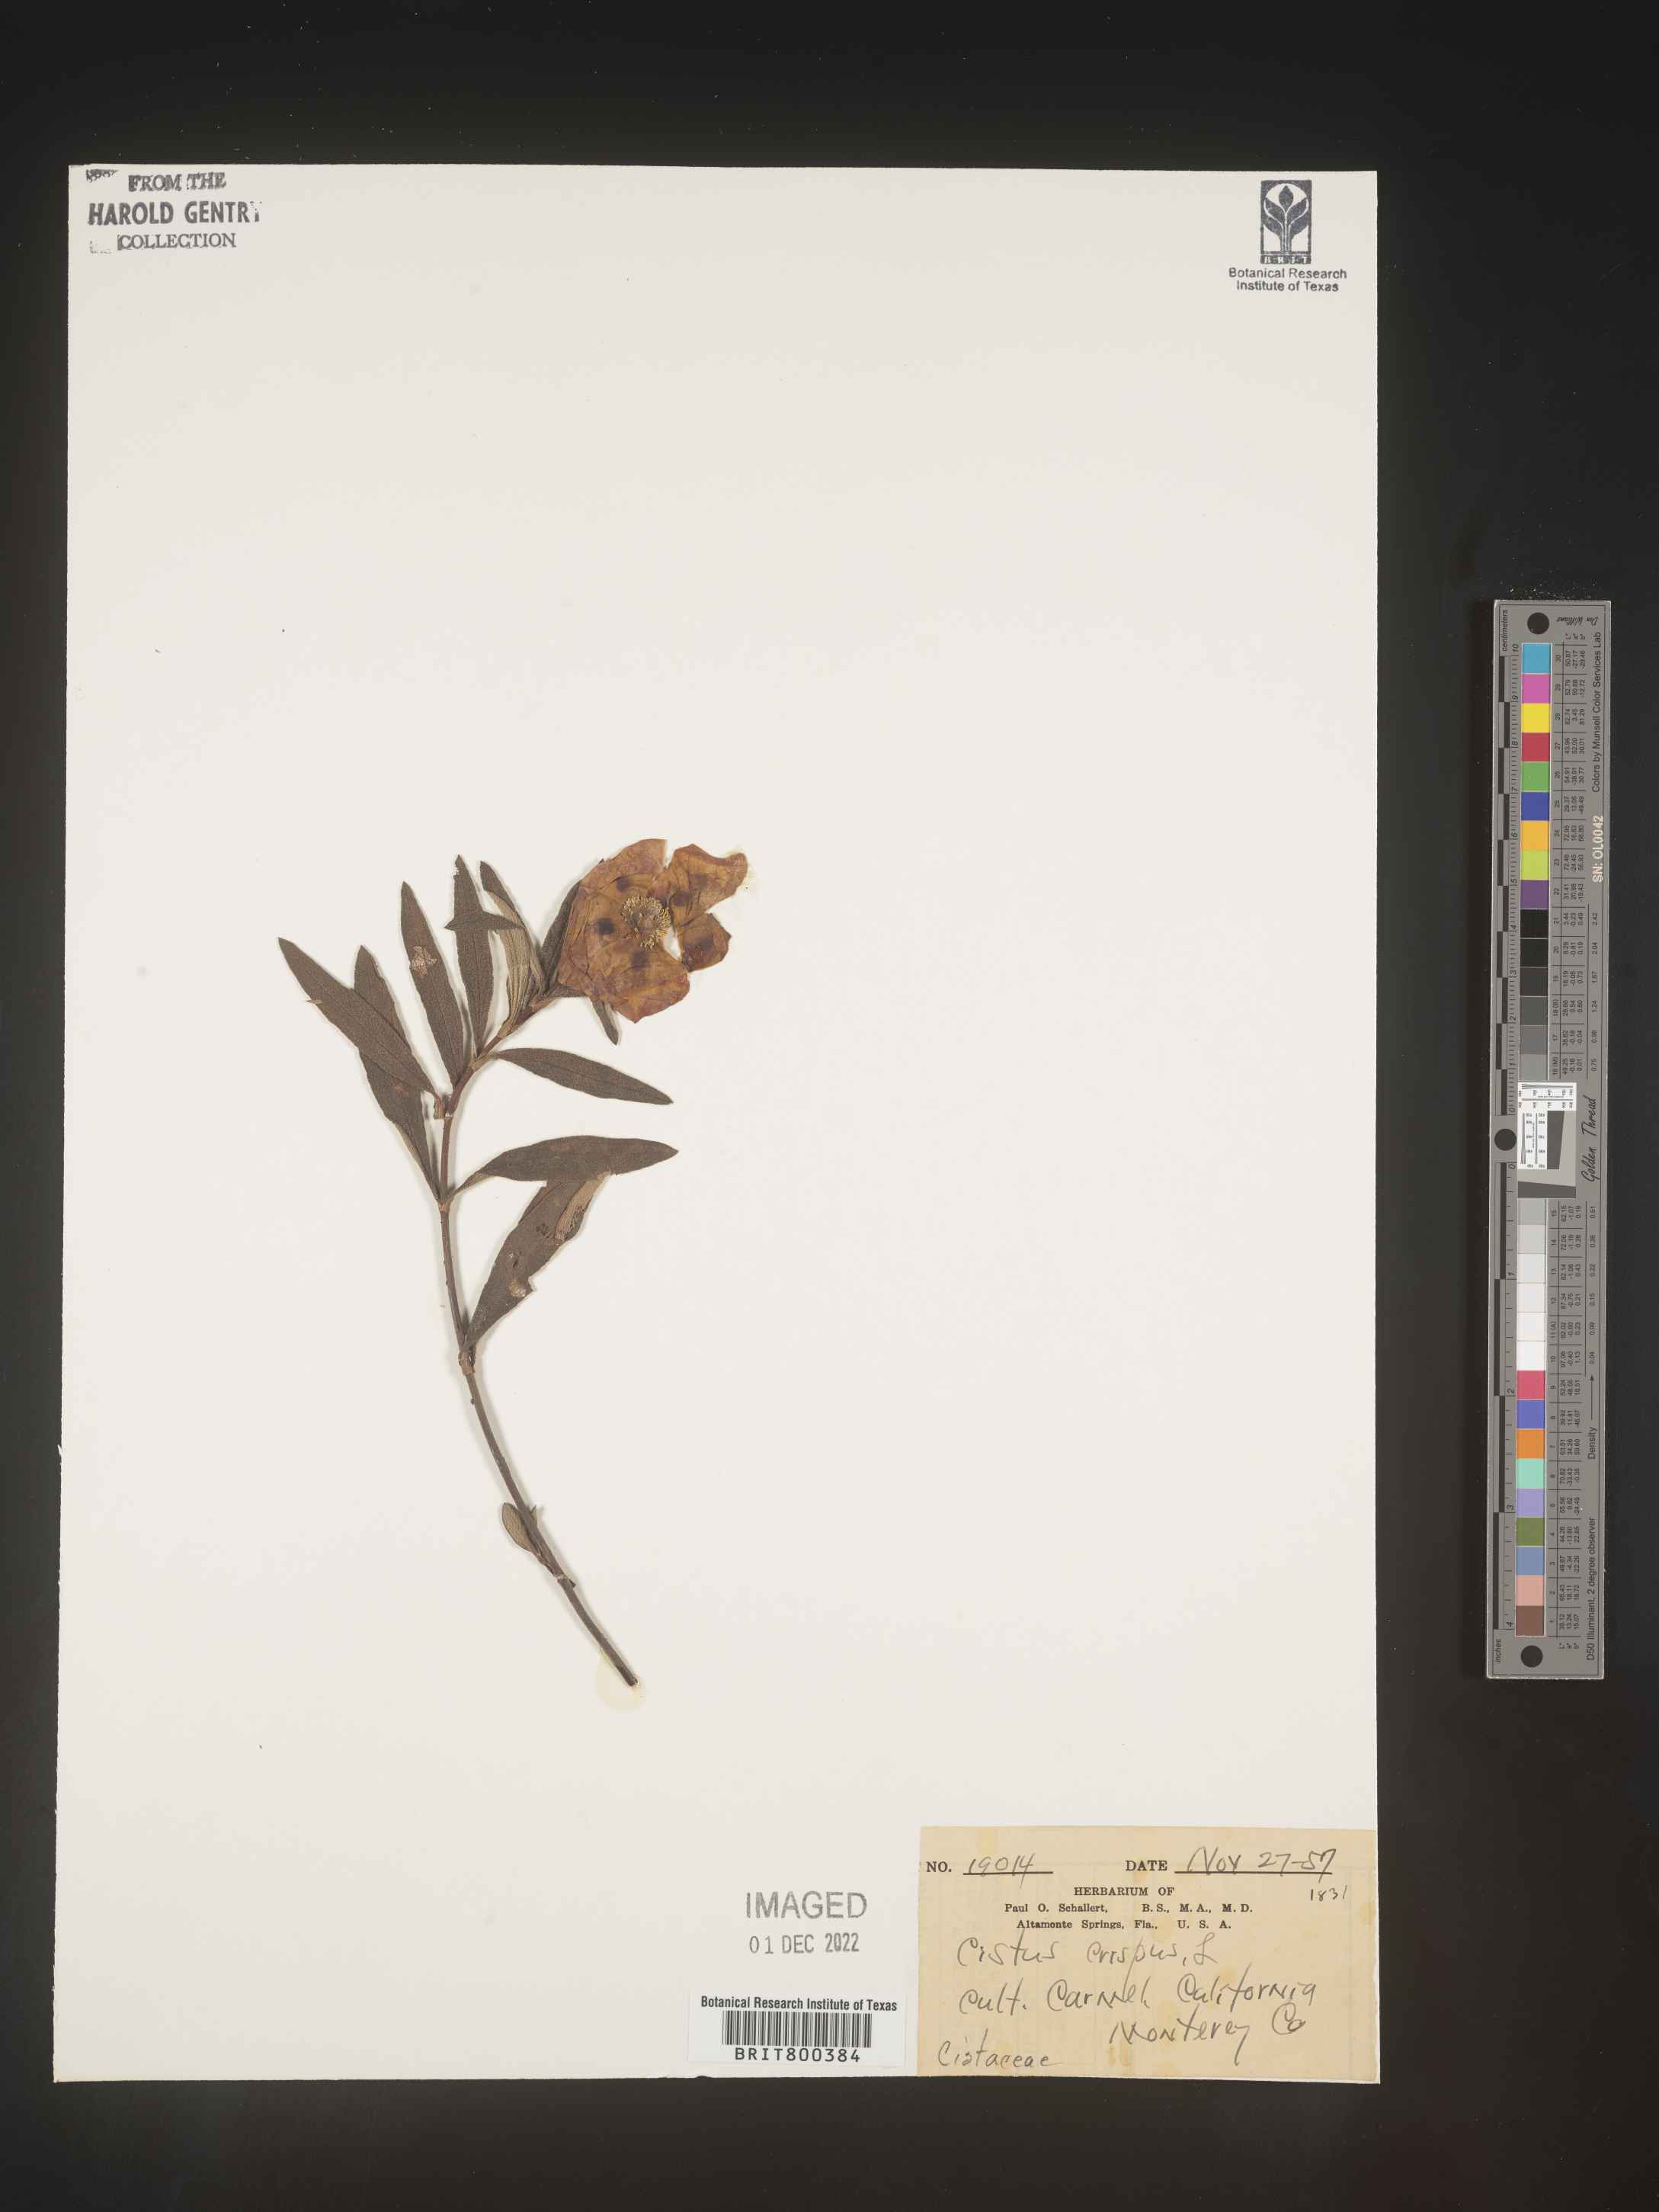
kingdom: Plantae
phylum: Tracheophyta
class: Magnoliopsida
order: Malvales
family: Cistaceae
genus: Cistus
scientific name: Cistus
